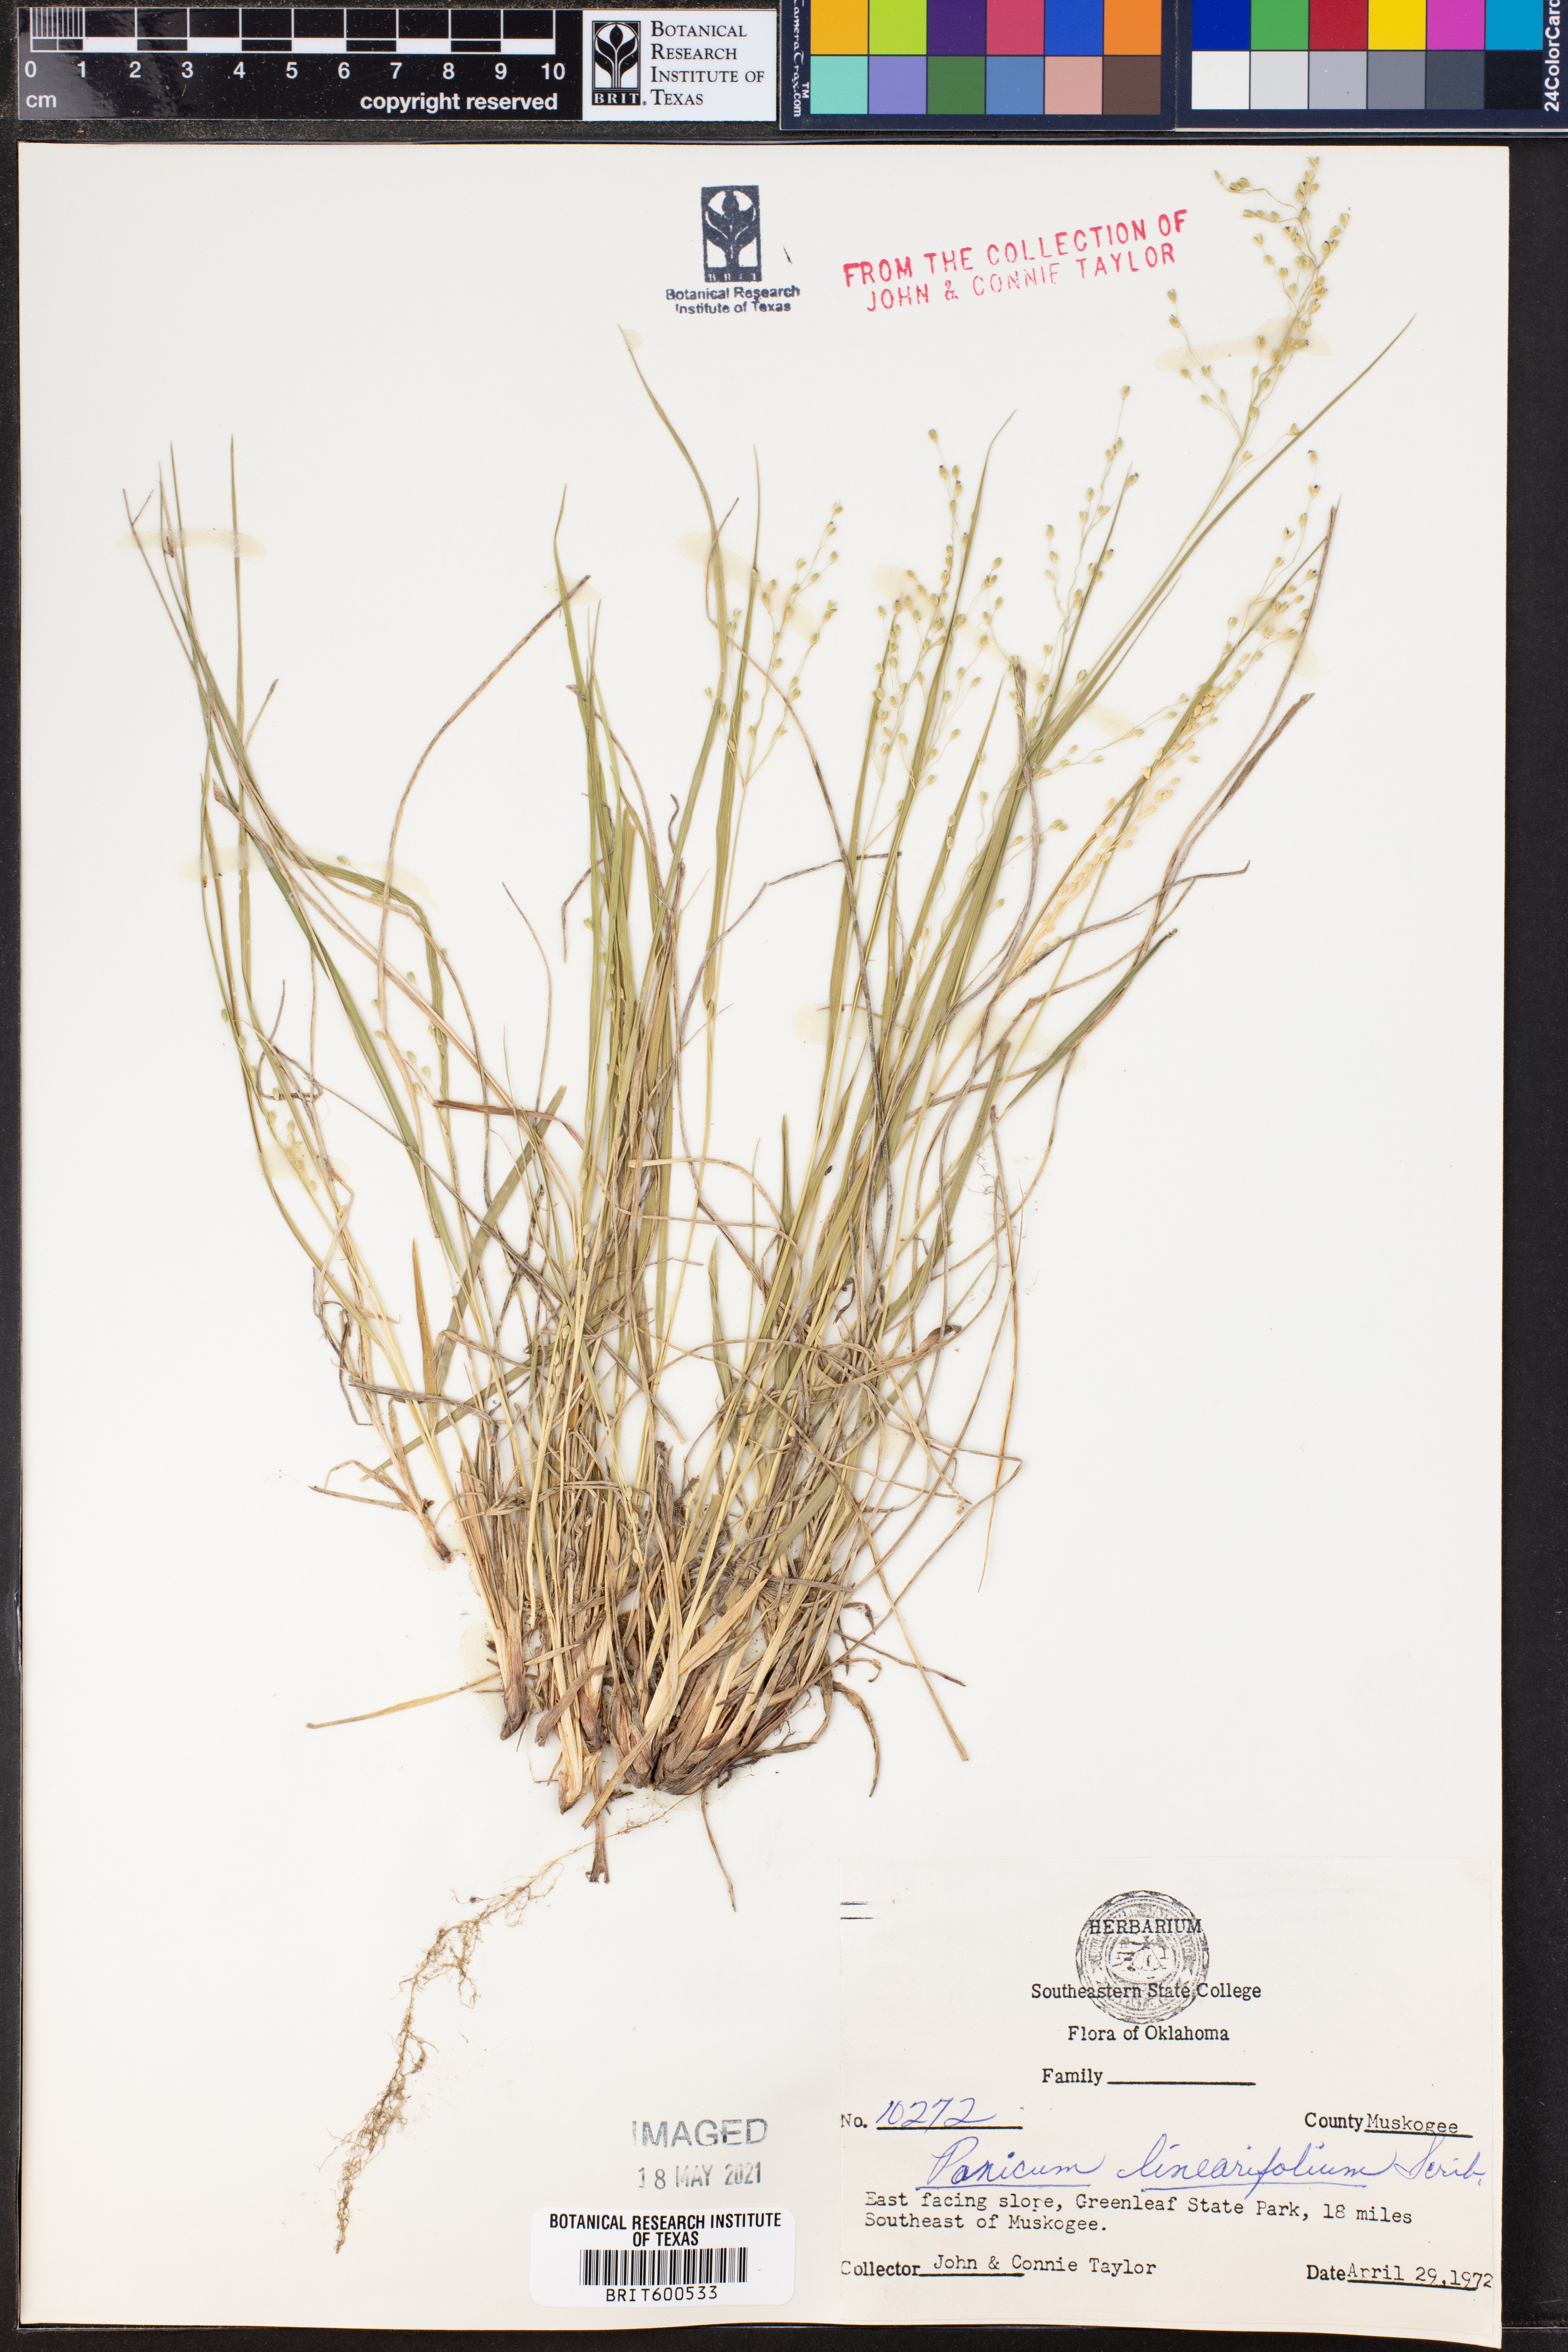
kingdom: Plantae
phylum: Tracheophyta
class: Liliopsida
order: Poales
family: Poaceae
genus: Dichanthelium
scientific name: Dichanthelium linearifolium
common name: Linear-leaved panicgrass
